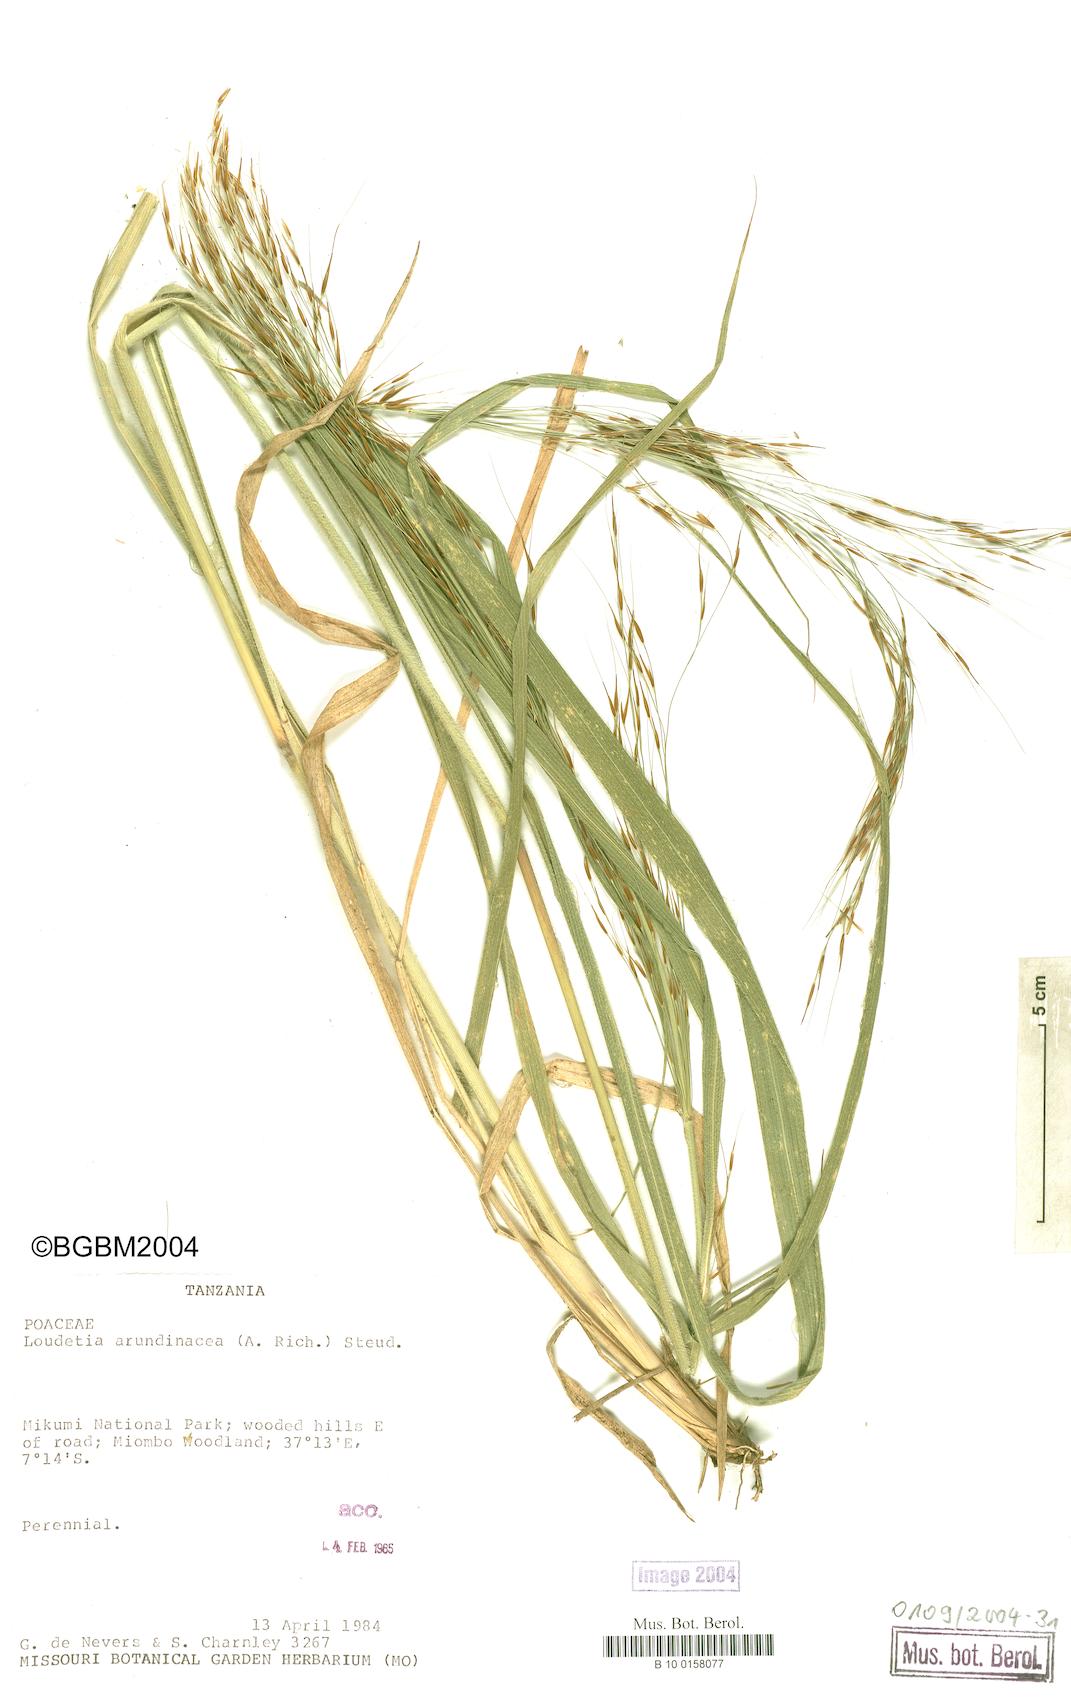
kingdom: Plantae
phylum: Tracheophyta
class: Liliopsida
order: Poales
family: Poaceae
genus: Loudetia
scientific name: Loudetia arundinacea
